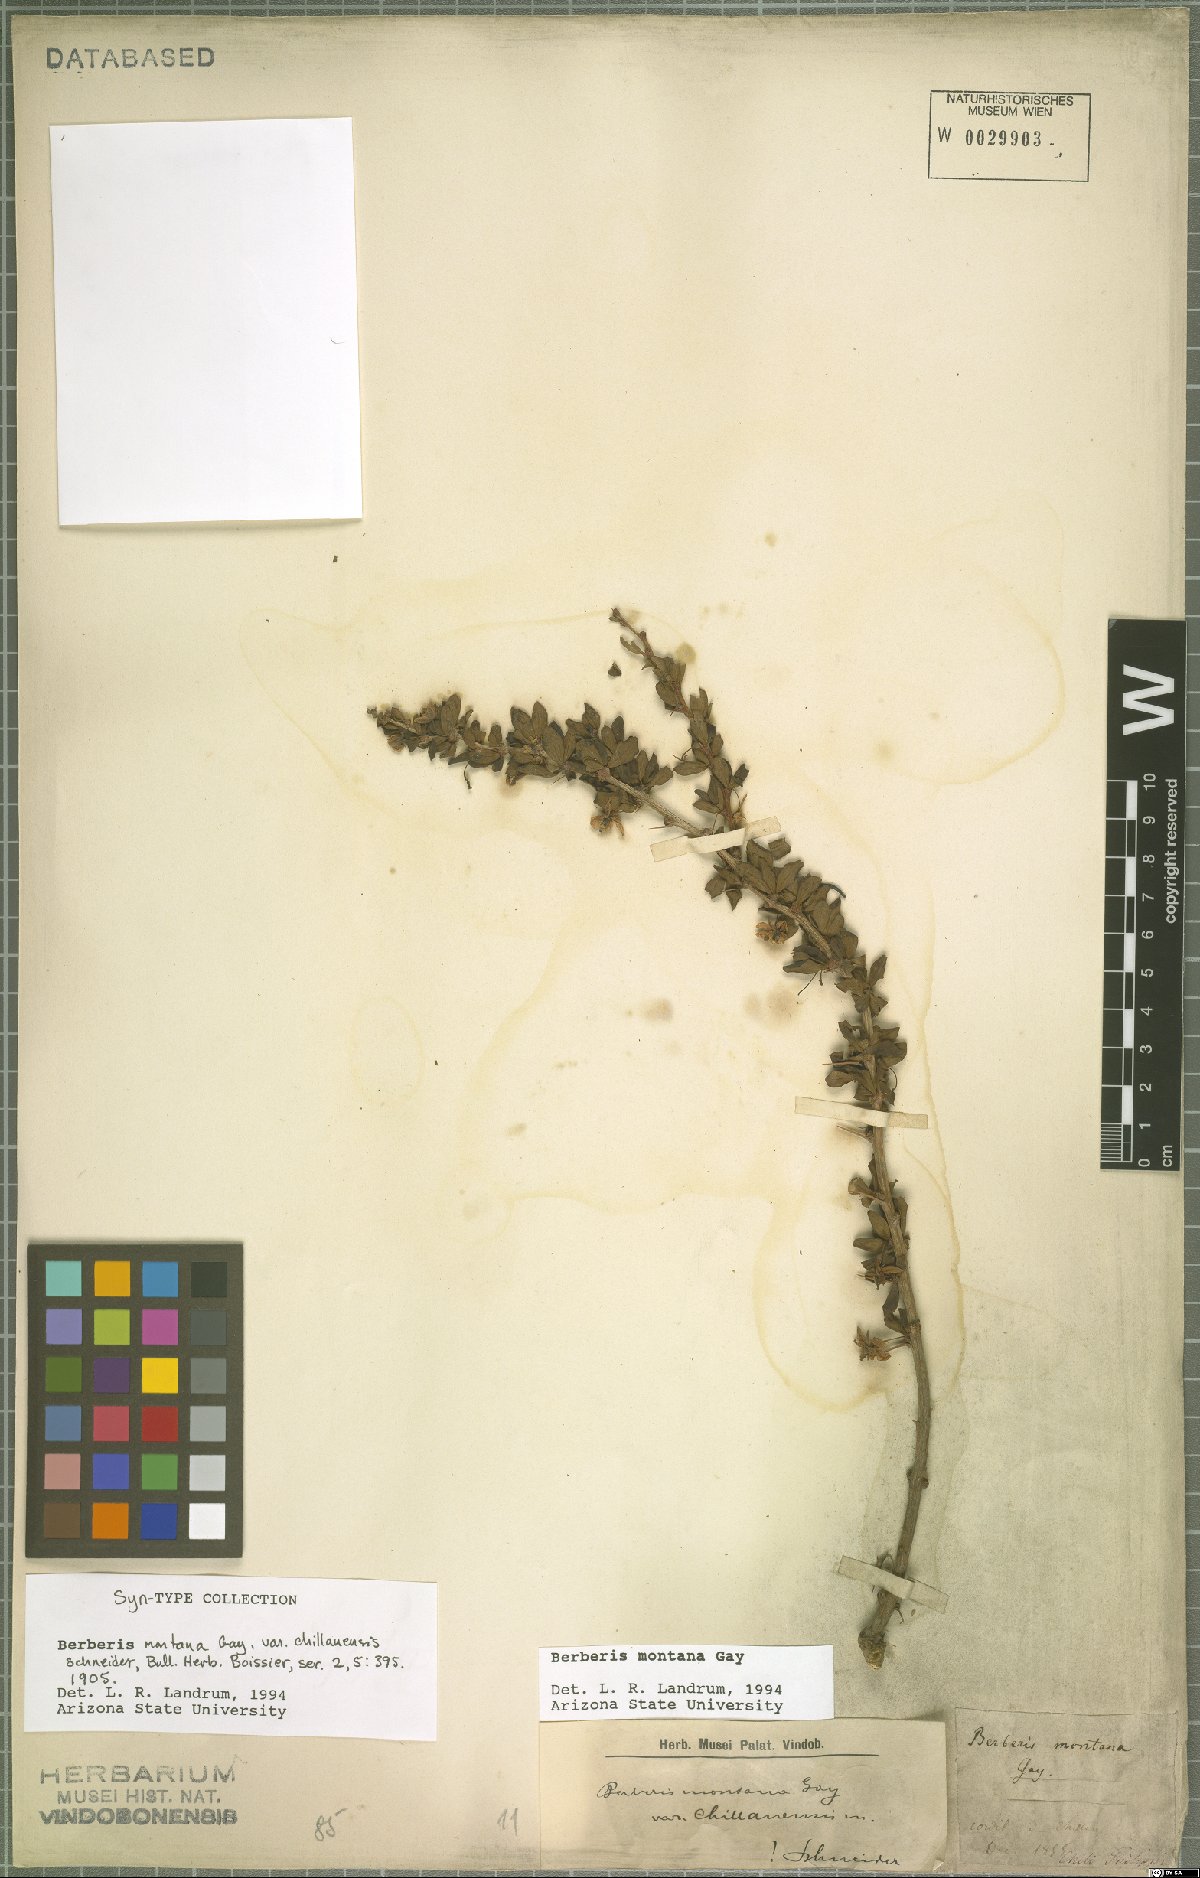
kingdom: Plantae
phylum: Tracheophyta
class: Magnoliopsida
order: Ranunculales
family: Berberidaceae
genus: Berberis
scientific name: Berberis montana
